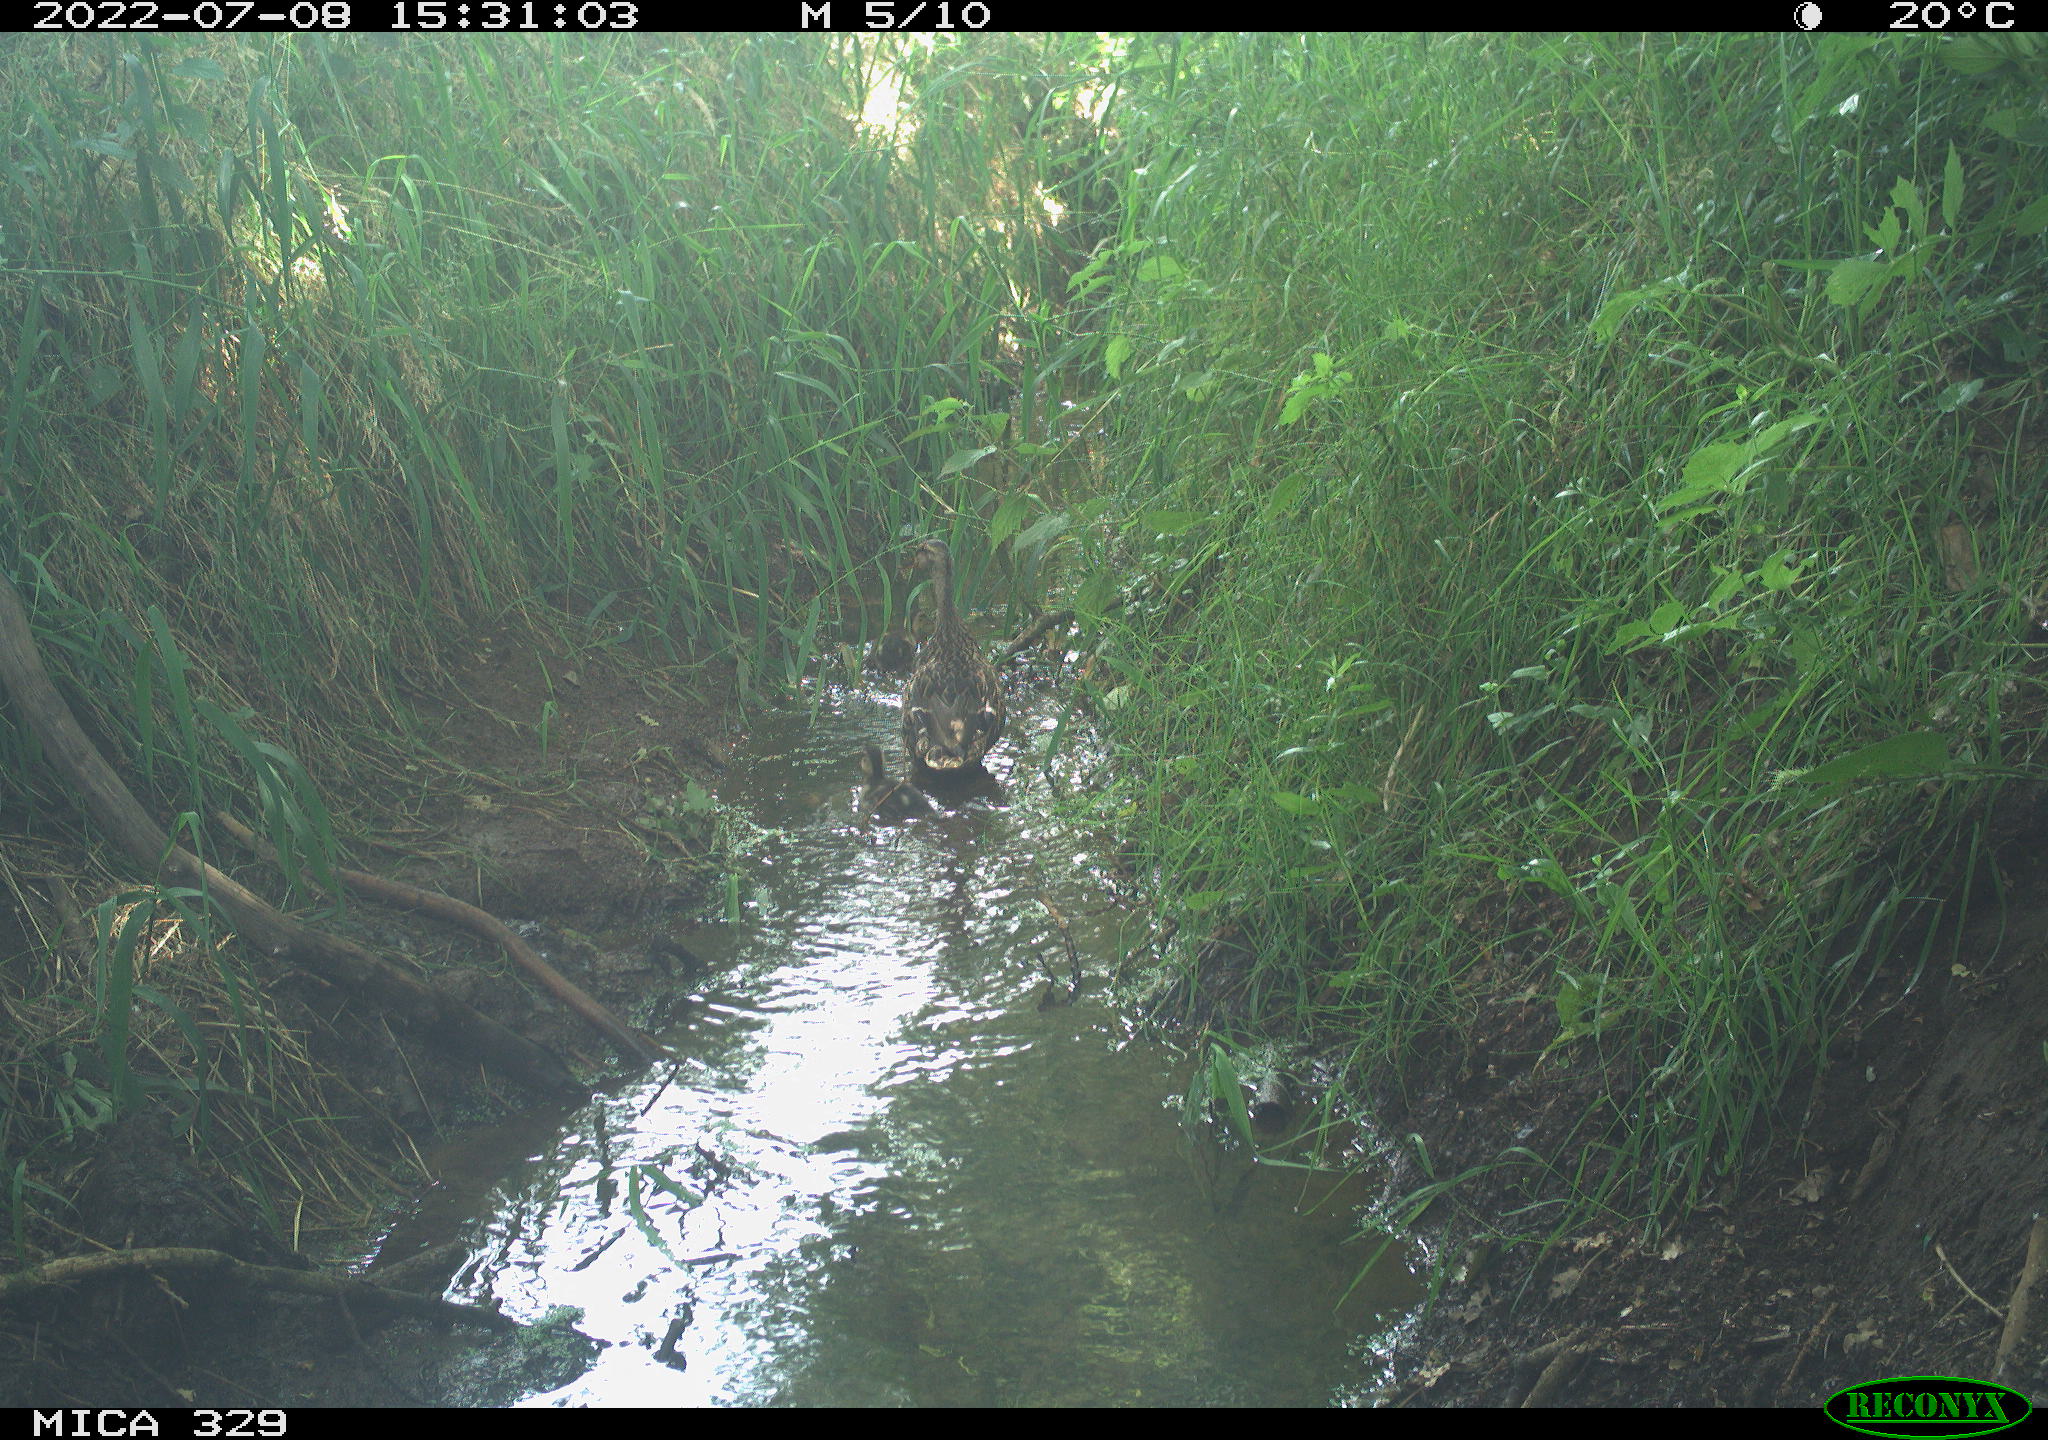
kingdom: Animalia
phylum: Chordata
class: Aves
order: Anseriformes
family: Anatidae
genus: Anas
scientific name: Anas platyrhynchos
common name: Mallard
